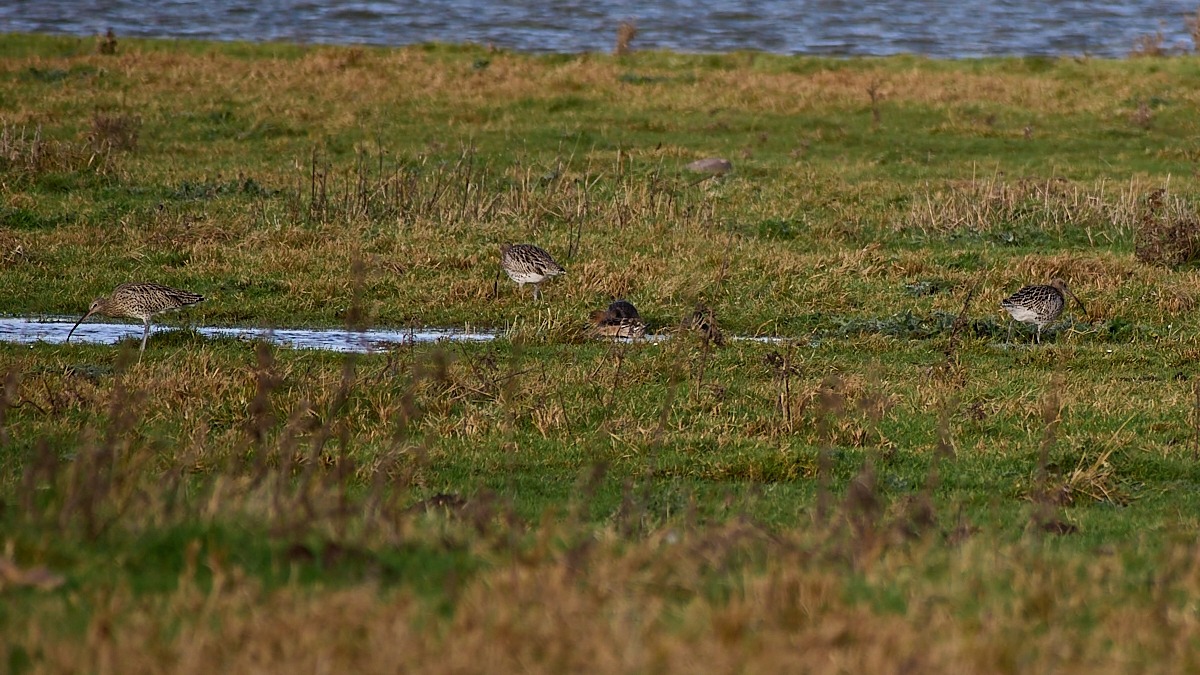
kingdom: Animalia
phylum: Chordata
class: Aves
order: Charadriiformes
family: Scolopacidae
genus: Numenius
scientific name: Numenius arquata
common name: Storspove
